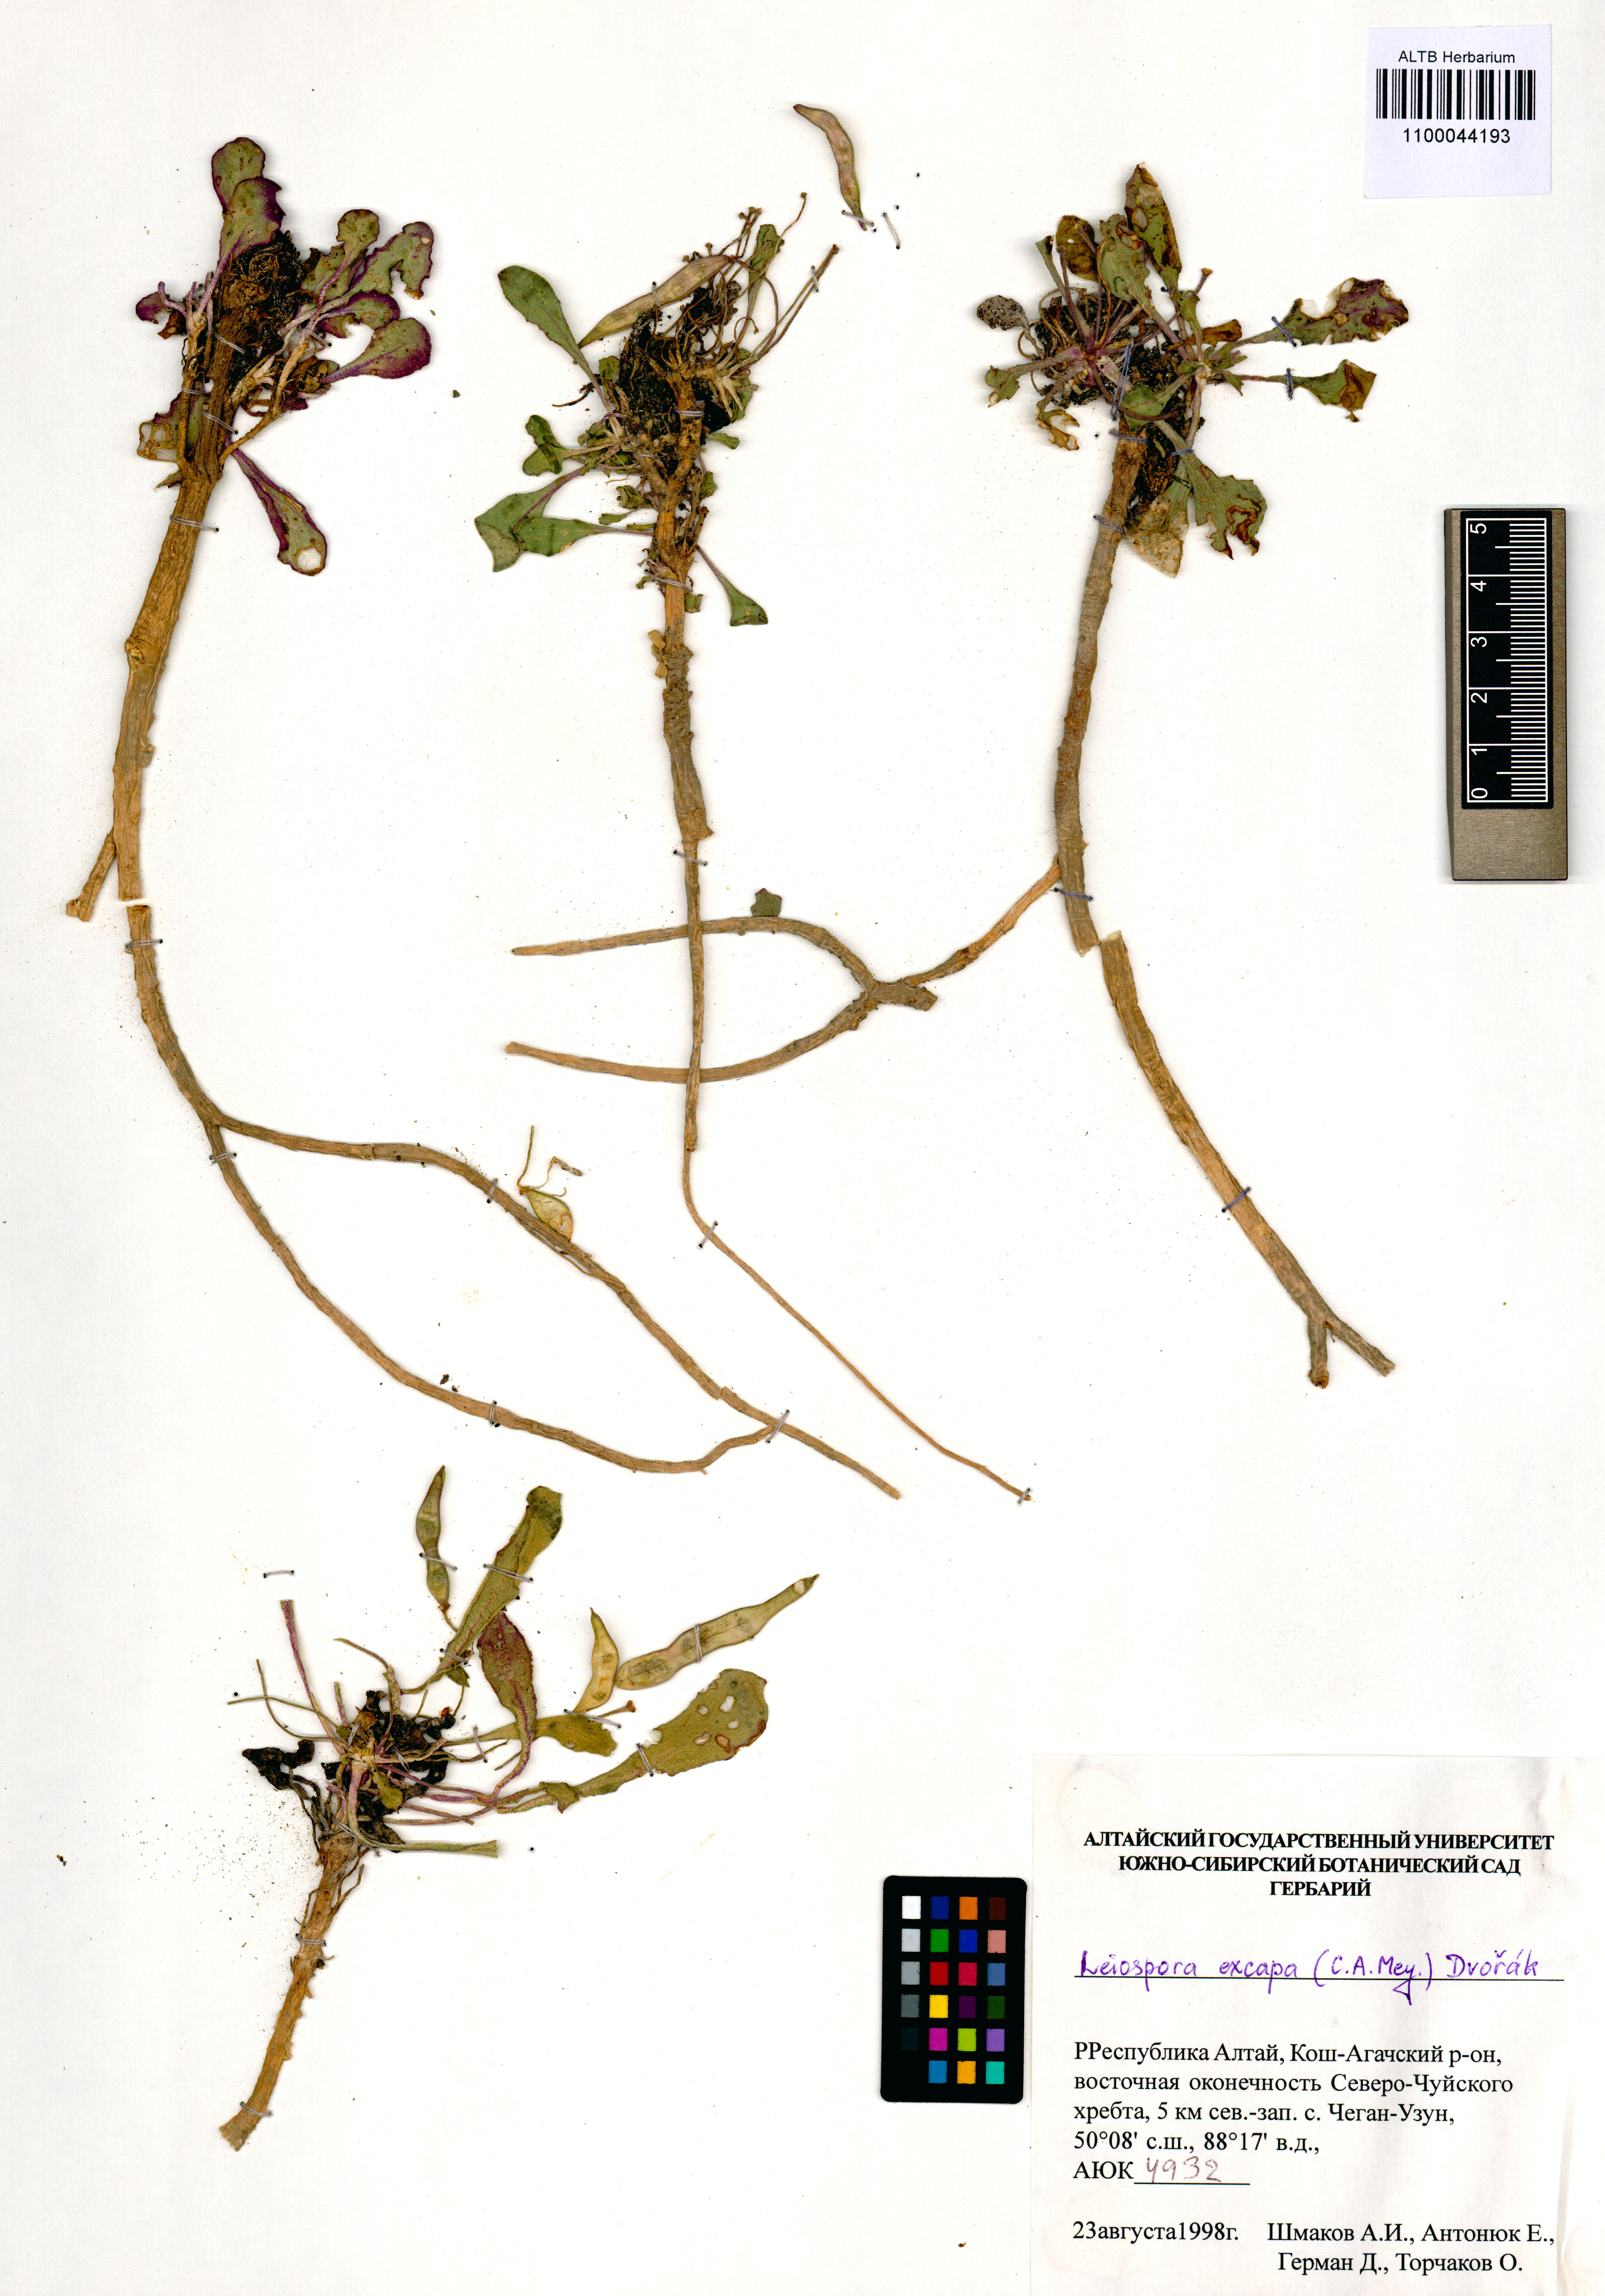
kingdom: Plantae
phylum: Tracheophyta
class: Magnoliopsida
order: Brassicales
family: Brassicaceae
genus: Leiospora
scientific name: Leiospora exscapa
